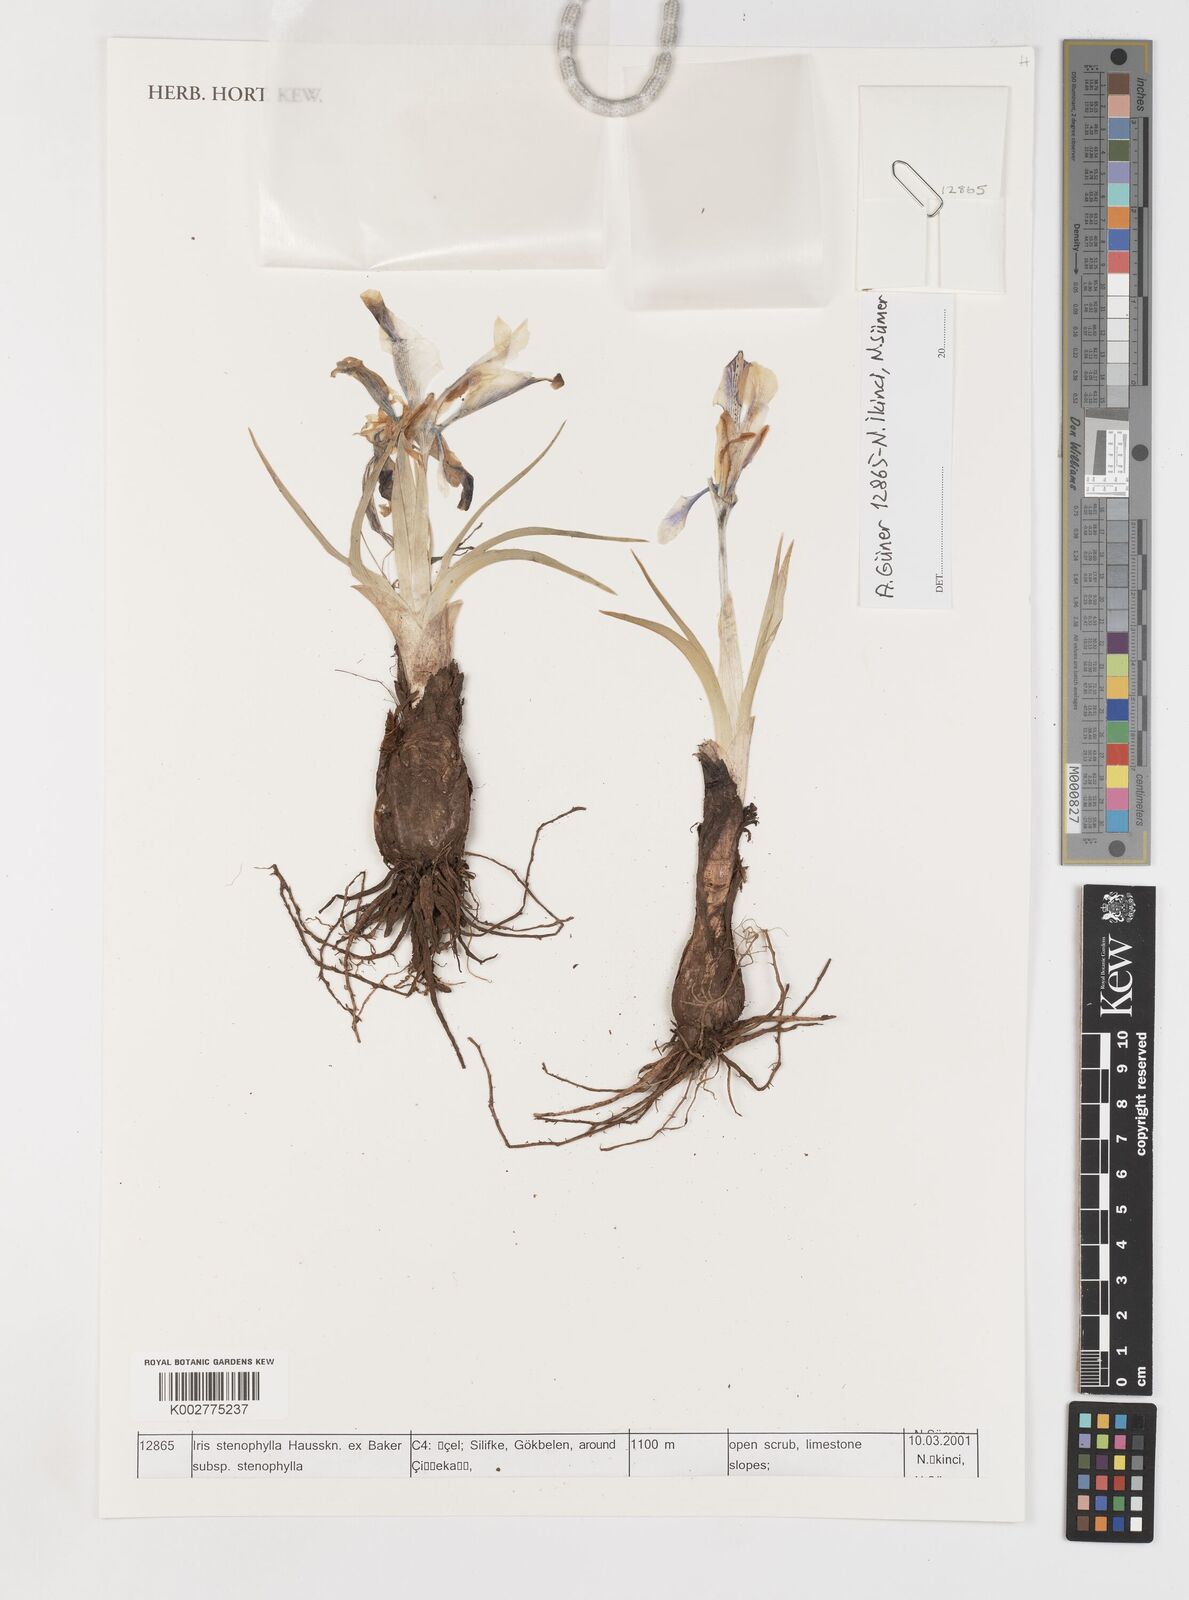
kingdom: Plantae
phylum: Tracheophyta
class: Liliopsida
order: Asparagales
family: Iridaceae
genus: Iris
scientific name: Iris stenophylla
